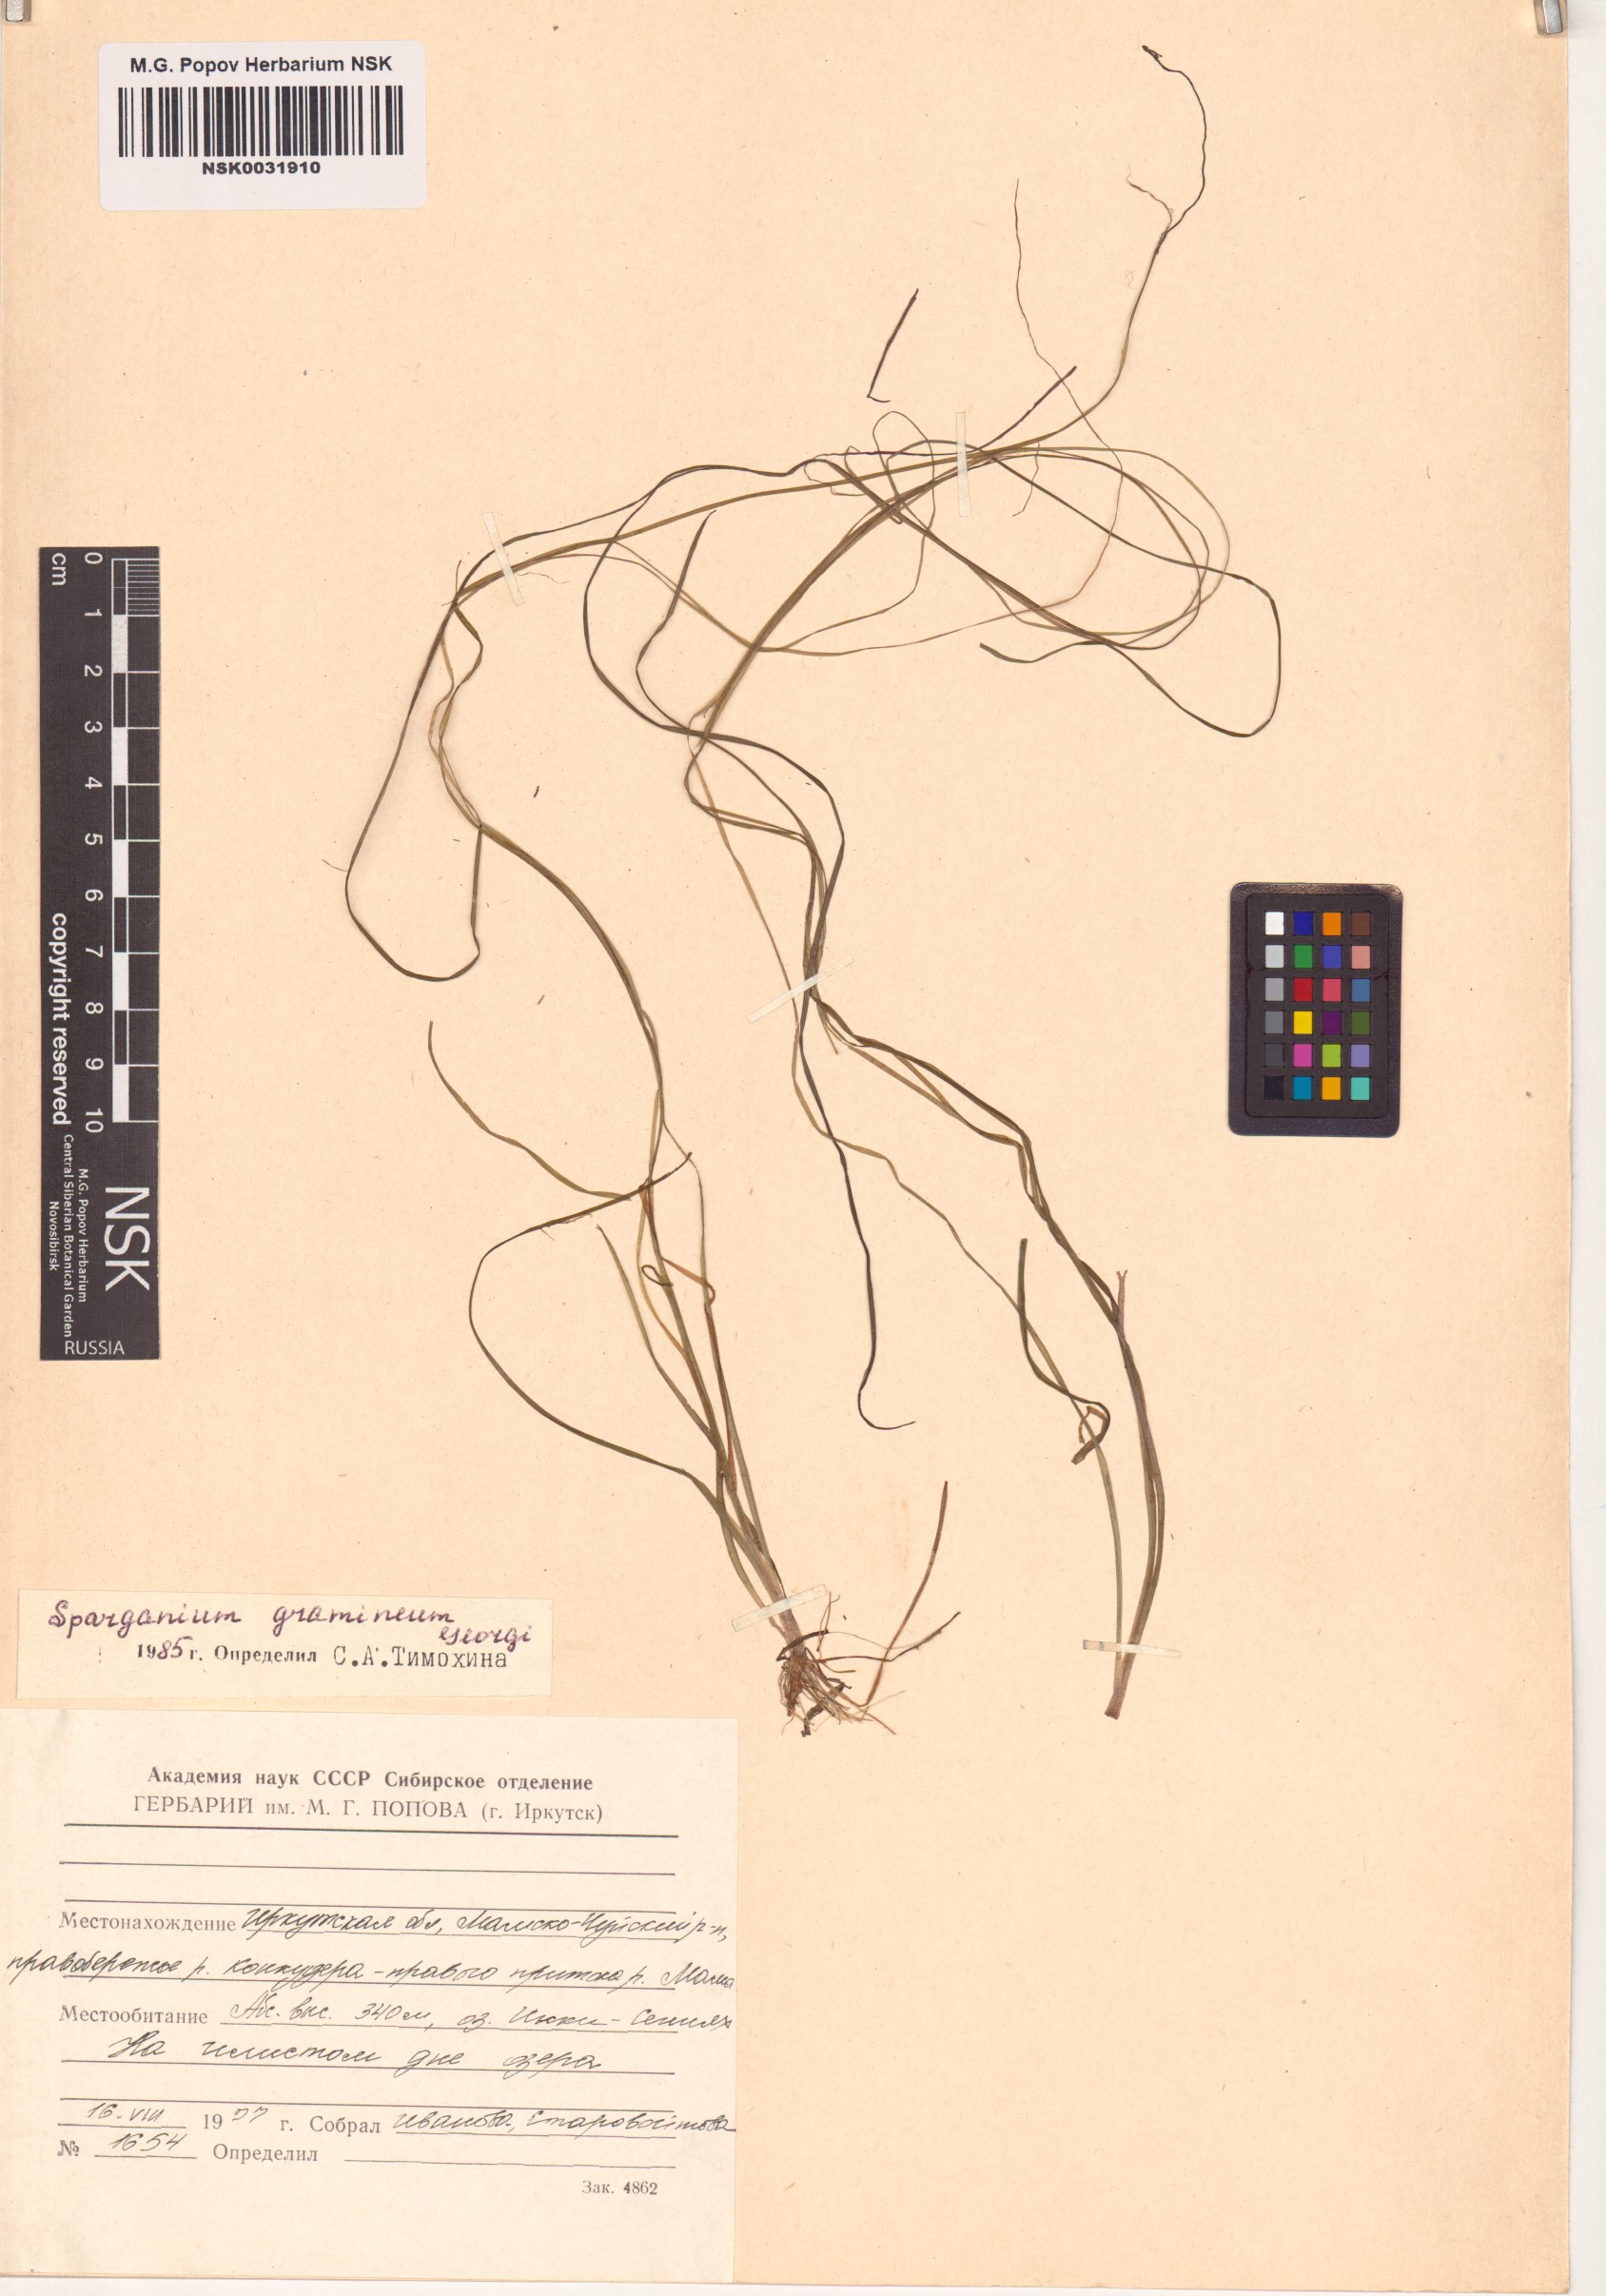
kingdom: Plantae
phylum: Tracheophyta
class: Liliopsida
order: Poales
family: Typhaceae
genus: Sparganium
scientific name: Sparganium gramineum
